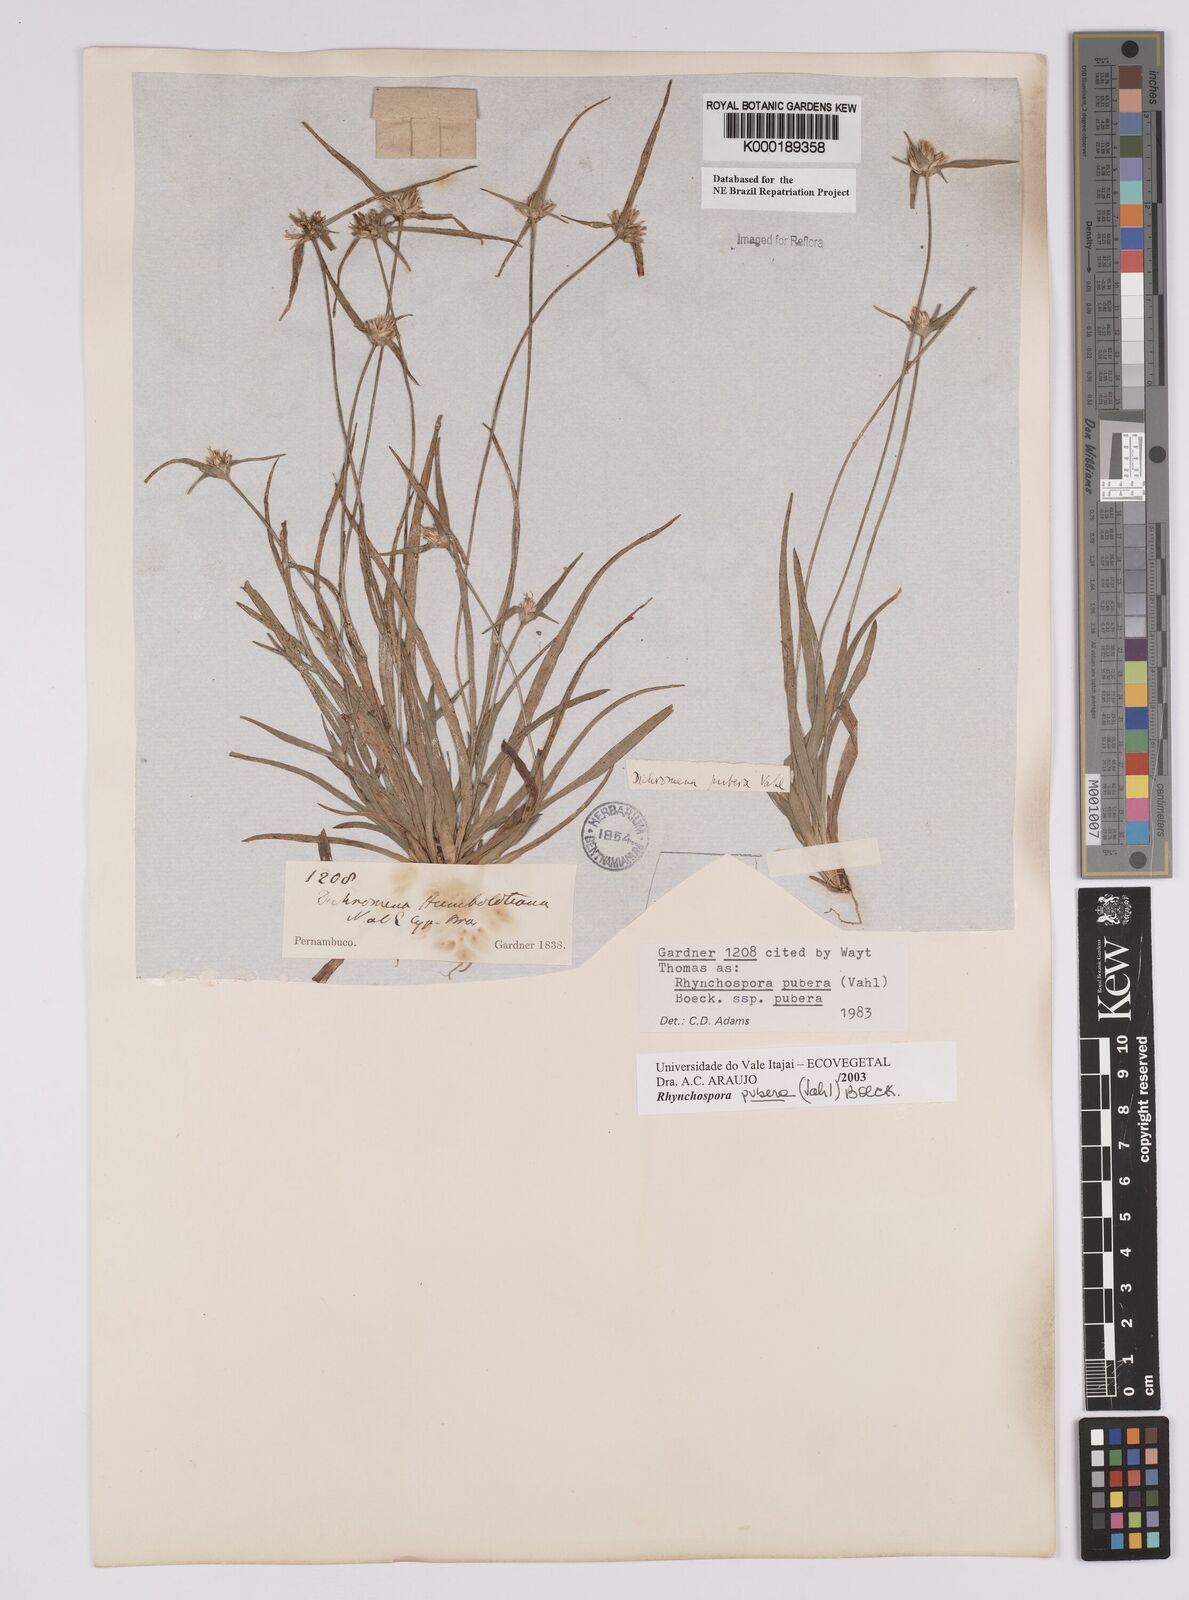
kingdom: Plantae
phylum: Tracheophyta
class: Liliopsida
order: Poales
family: Cyperaceae
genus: Rhynchospora
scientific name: Rhynchospora pubera
